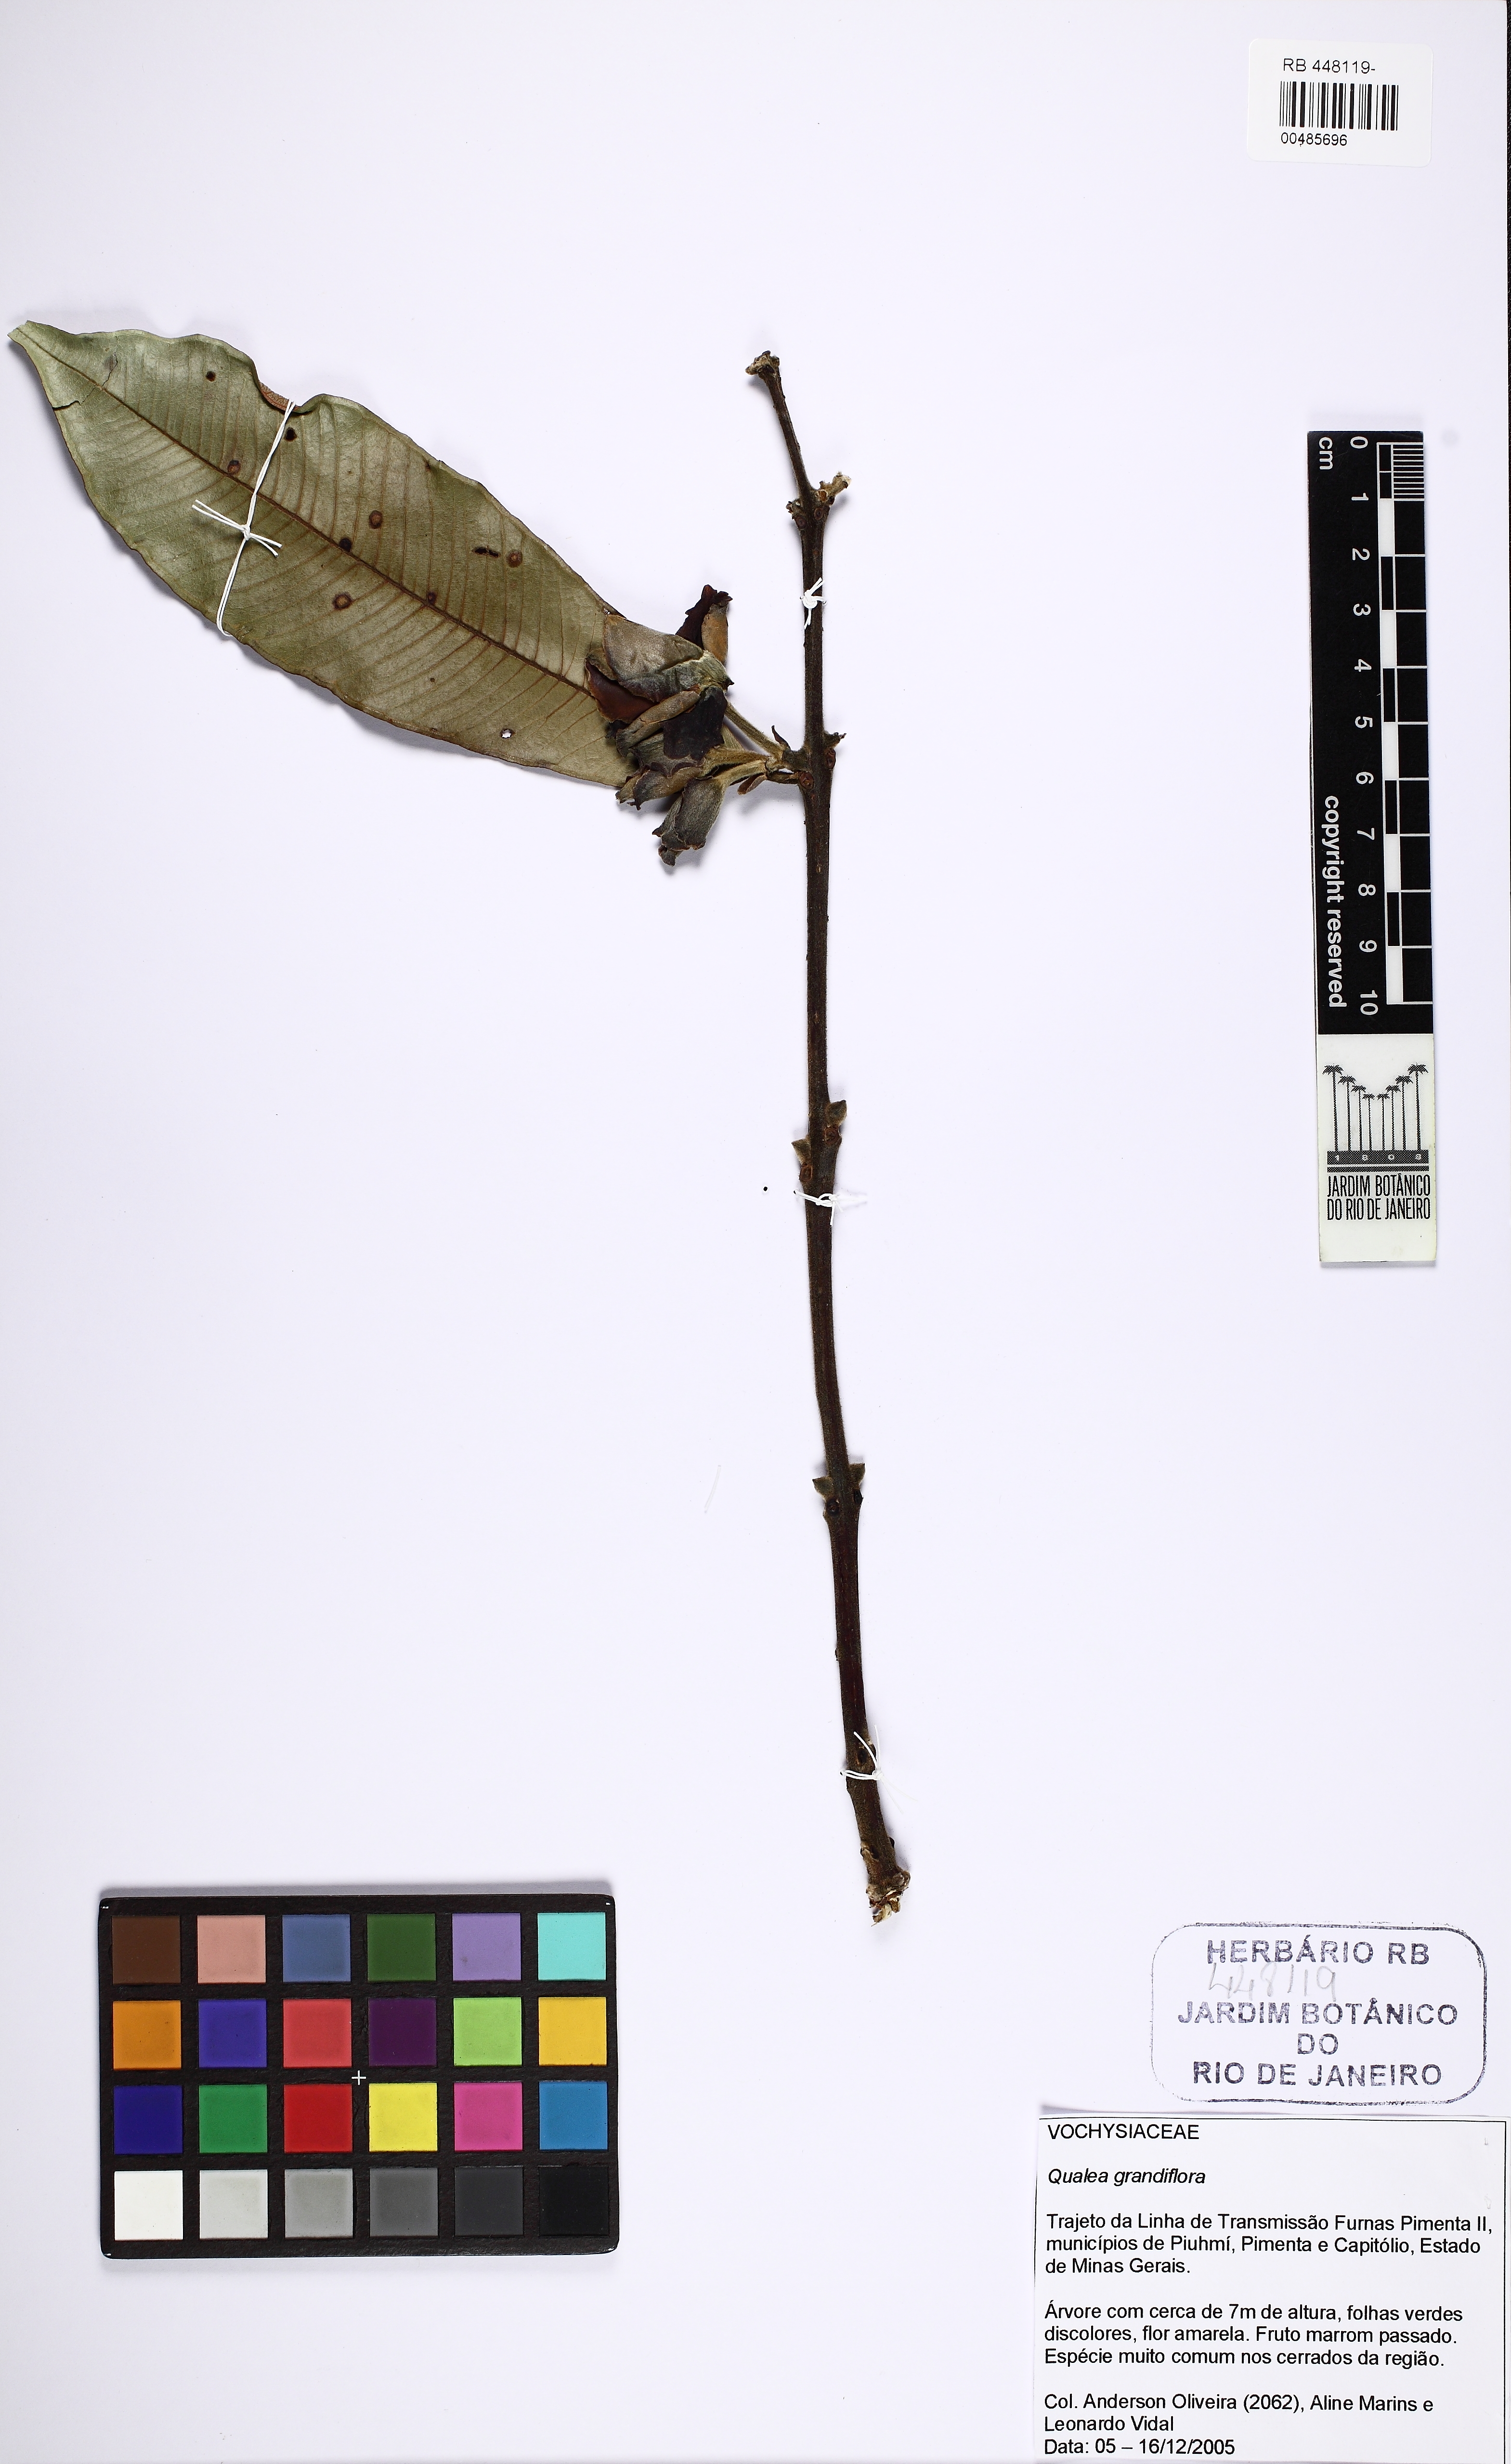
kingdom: Plantae
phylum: Tracheophyta
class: Magnoliopsida
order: Myrtales
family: Vochysiaceae
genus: Qualea
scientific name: Qualea grandiflora
